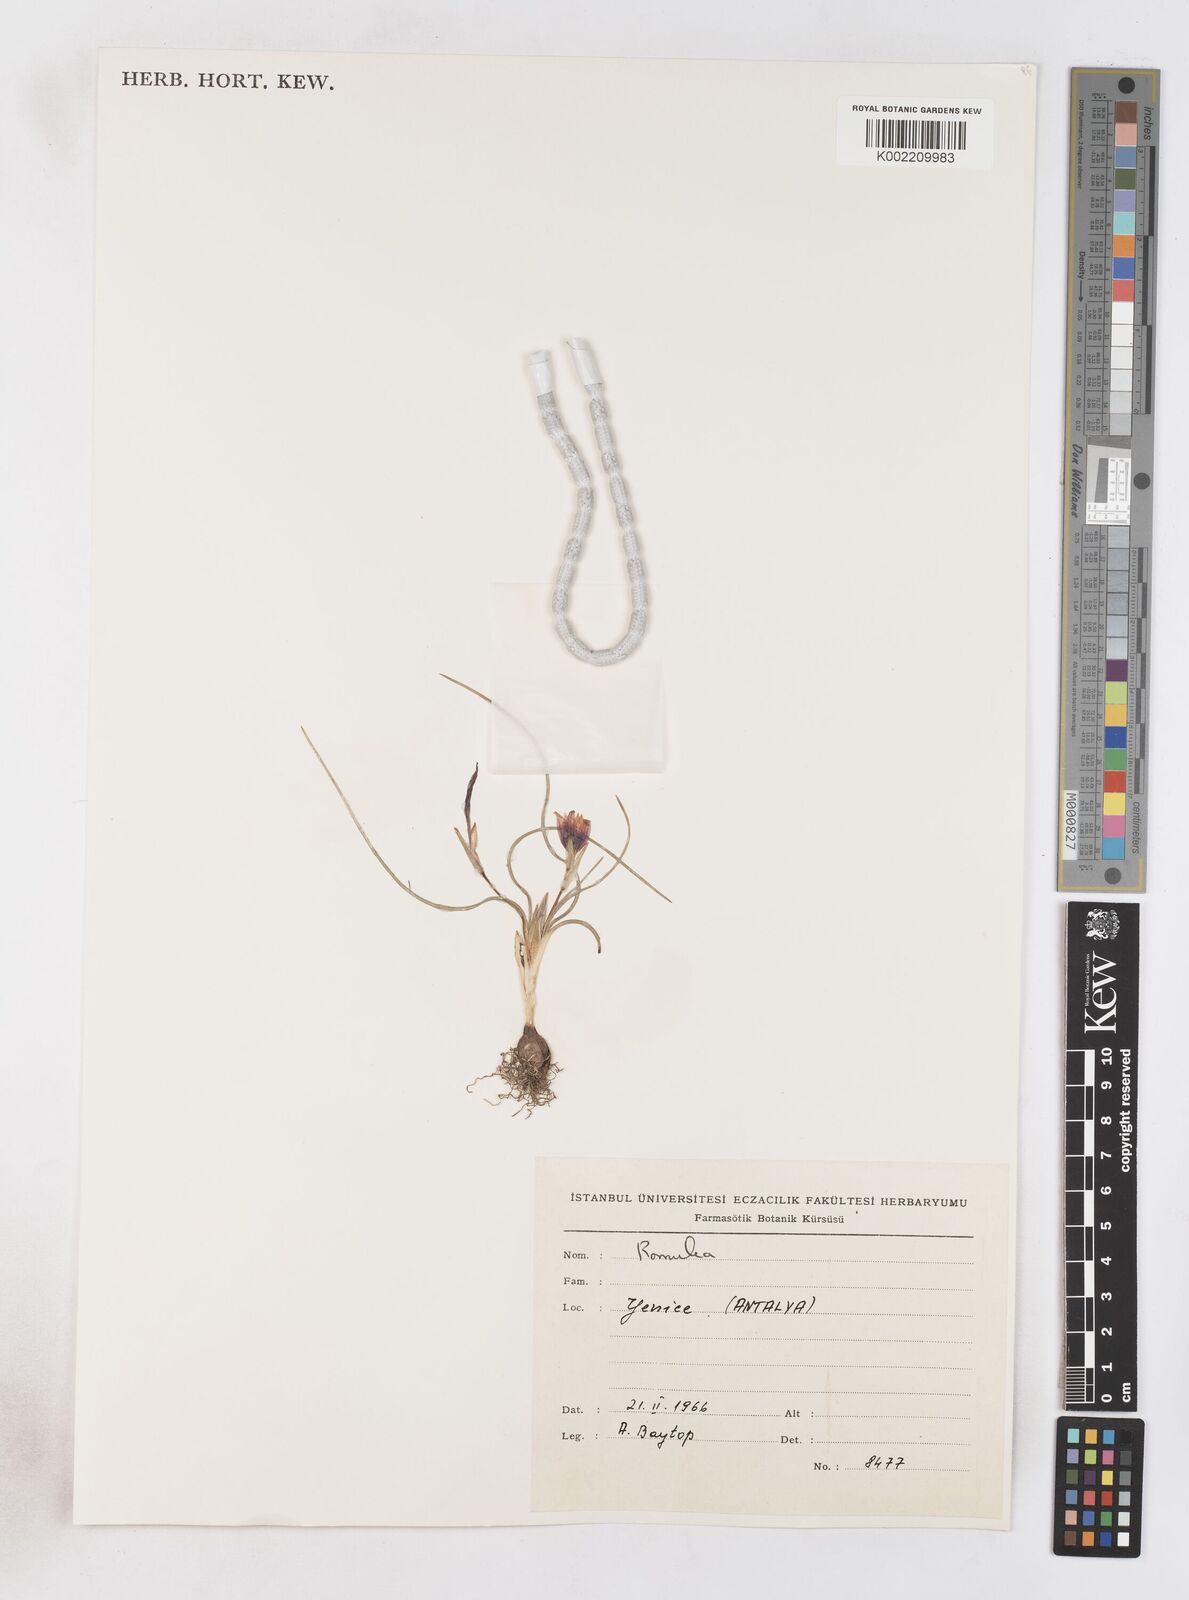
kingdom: Plantae
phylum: Tracheophyta
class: Liliopsida
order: Asparagales
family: Iridaceae
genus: Romulea
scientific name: Romulea tempskyana
